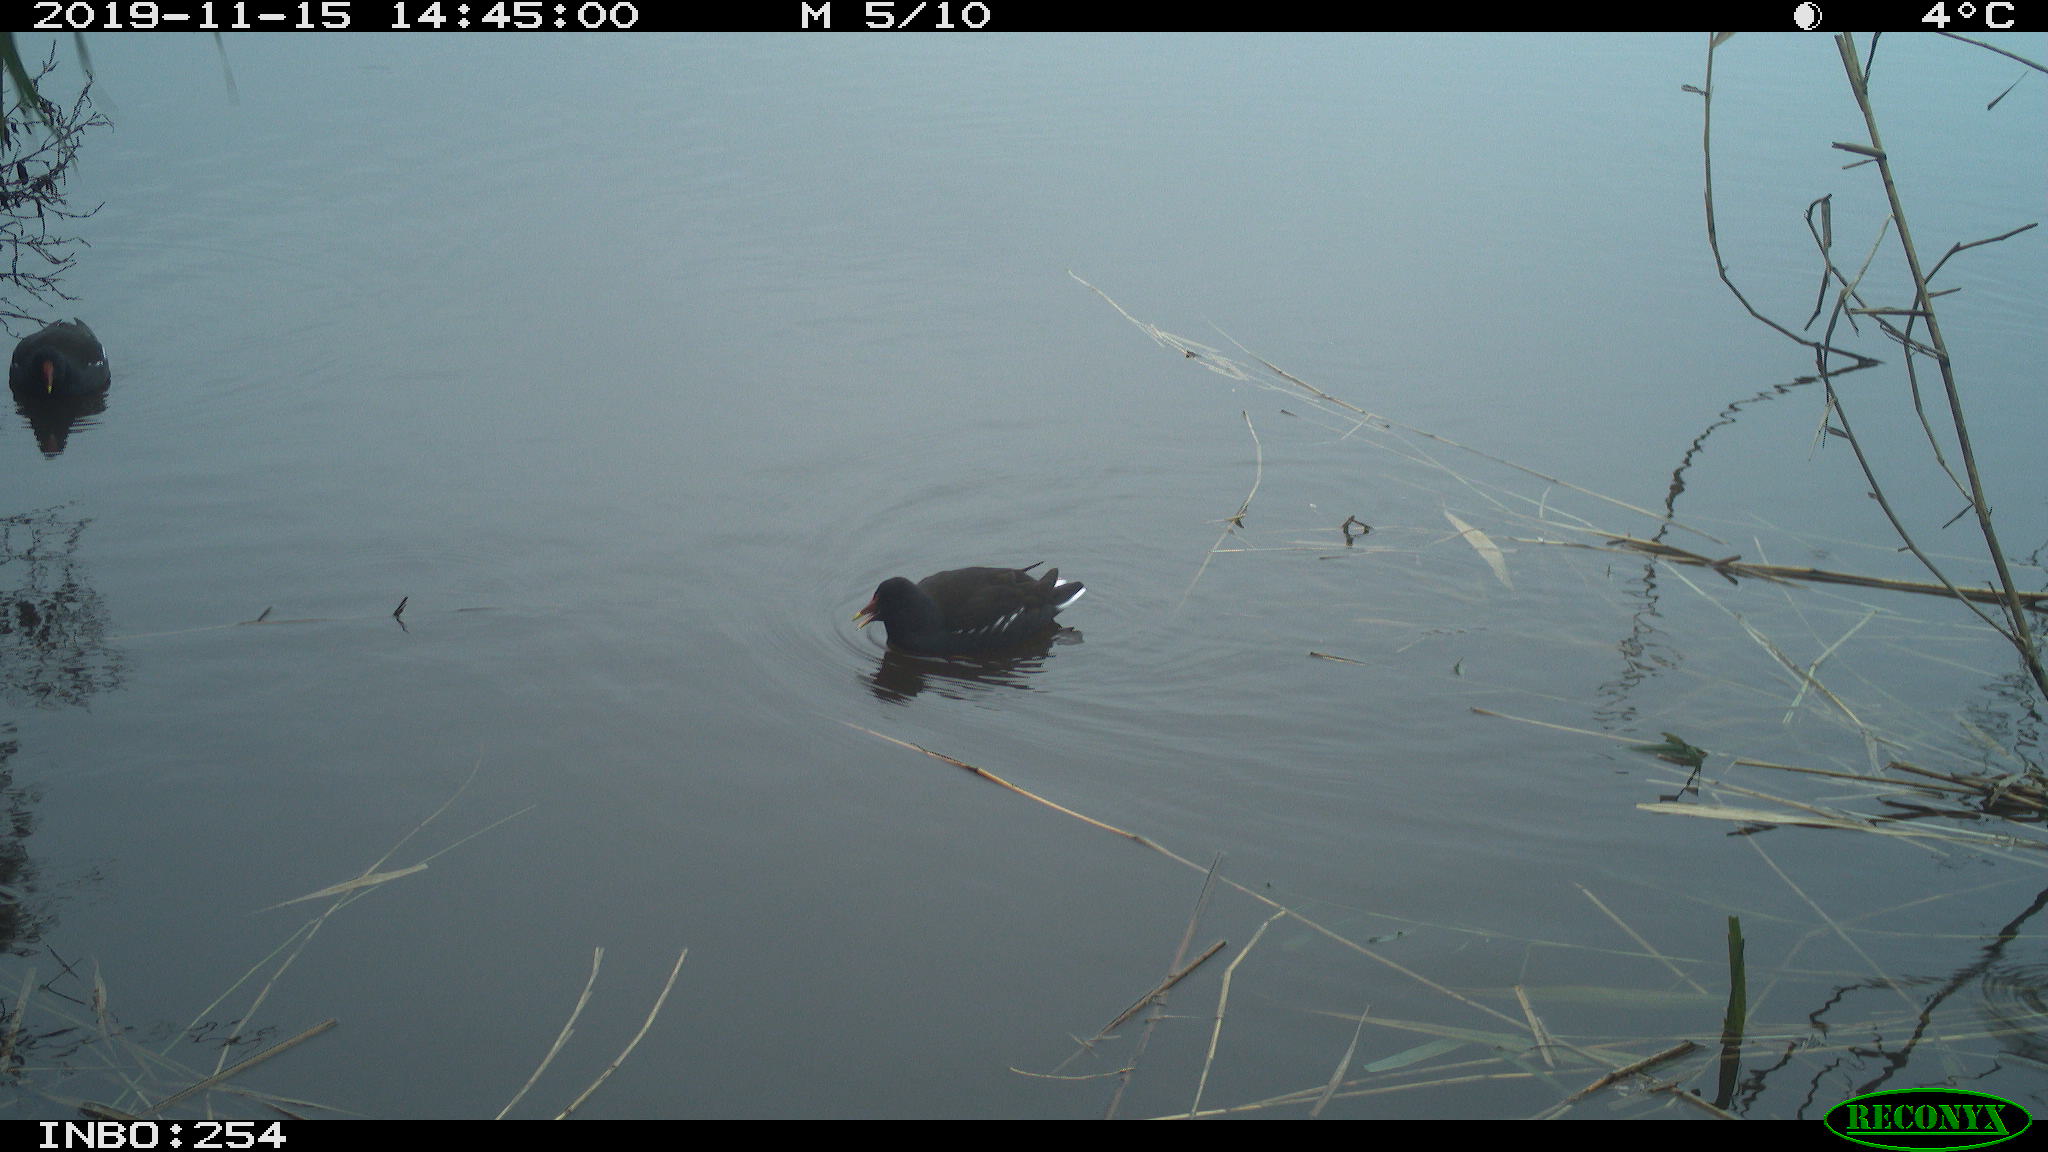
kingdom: Animalia
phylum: Chordata
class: Aves
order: Gruiformes
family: Rallidae
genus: Gallinula
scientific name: Gallinula chloropus
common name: Common moorhen
